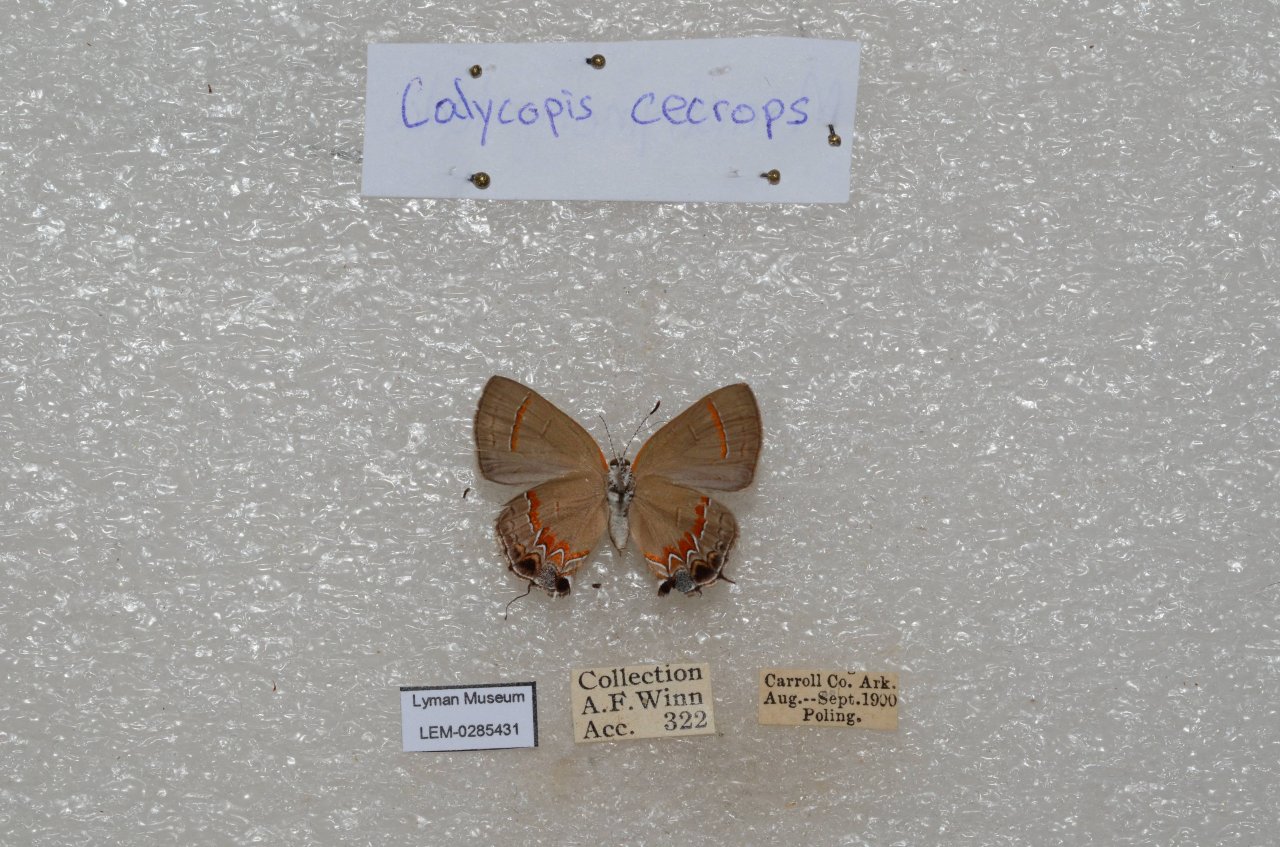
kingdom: Animalia
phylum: Arthropoda
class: Insecta
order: Lepidoptera
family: Lycaenidae
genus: Calycopis
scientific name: Calycopis cecrops
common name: Red-banded Hairstreak
